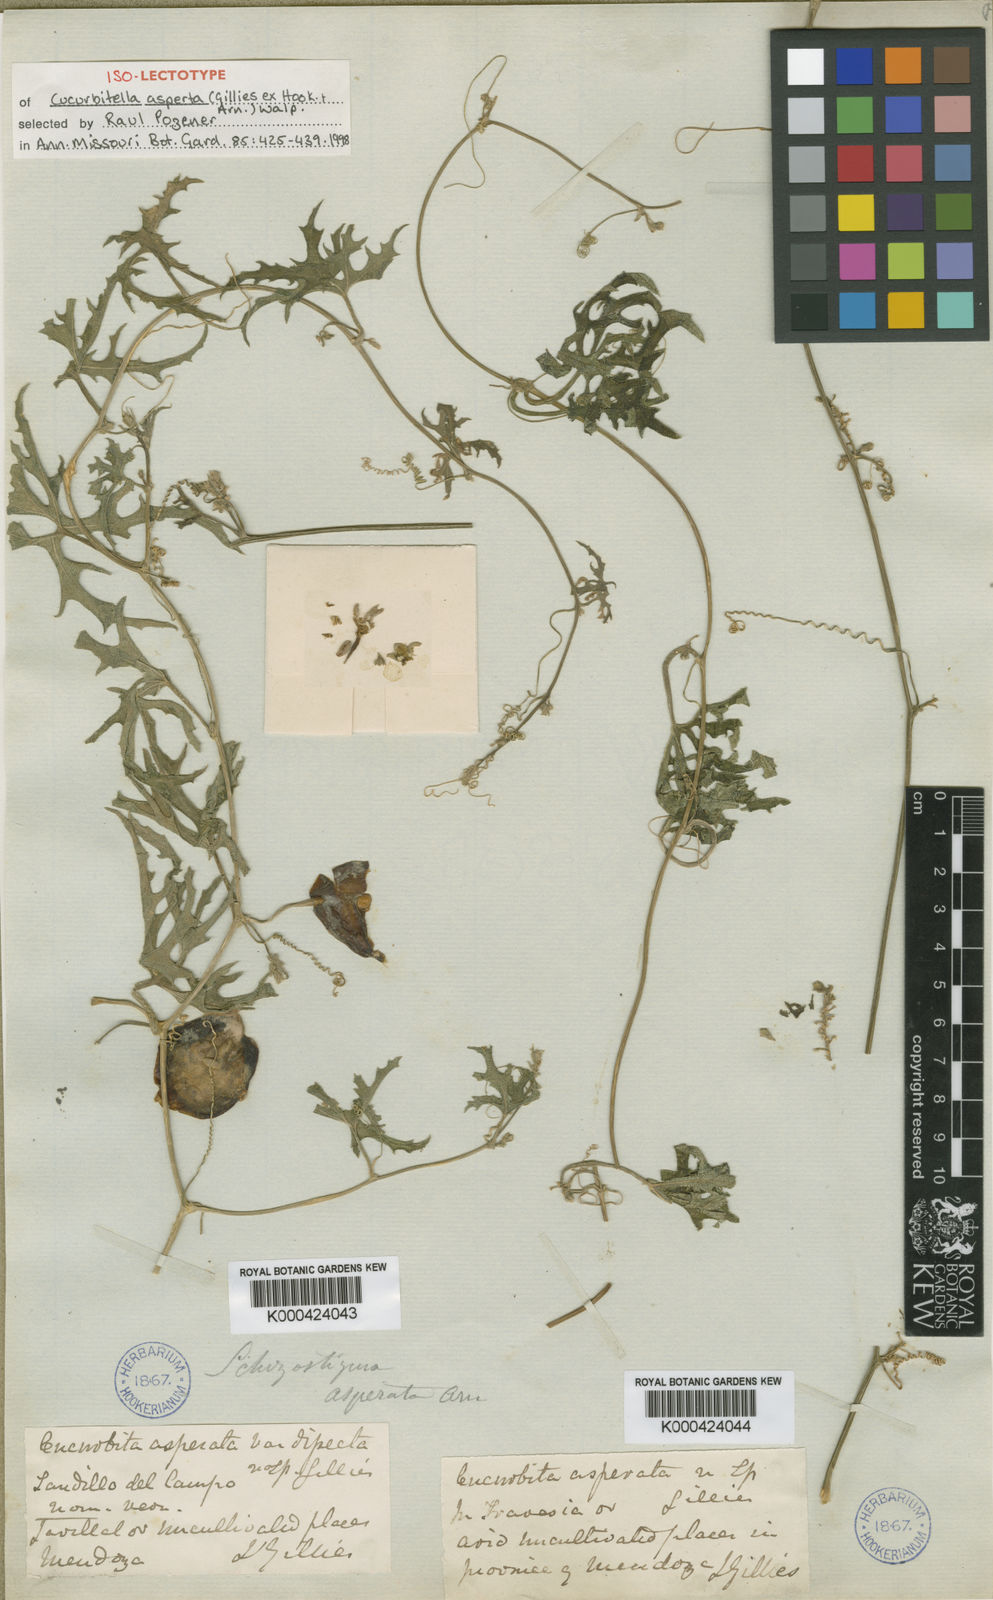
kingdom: Plantae
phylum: Tracheophyta
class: Magnoliopsida
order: Cucurbitales
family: Cucurbitaceae
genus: Cucurbitella
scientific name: Cucurbitella asperata
